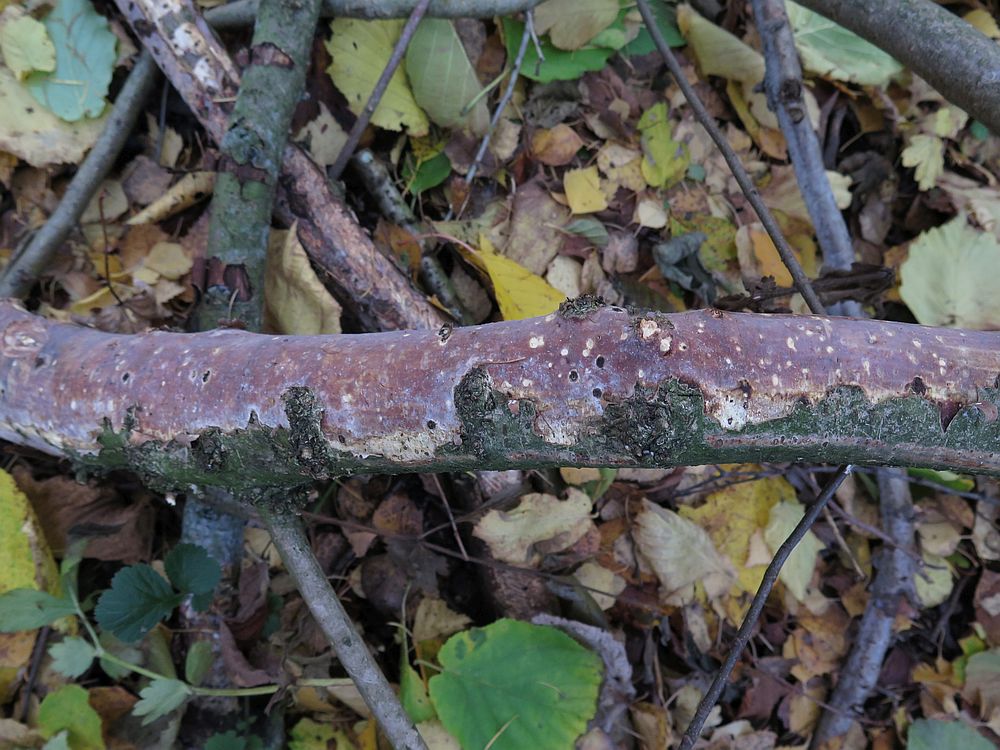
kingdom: Fungi
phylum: Basidiomycota
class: Agaricomycetes
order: Corticiales
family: Vuilleminiaceae
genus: Vuilleminia
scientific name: Vuilleminia coryli
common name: hassel-barksprænger
